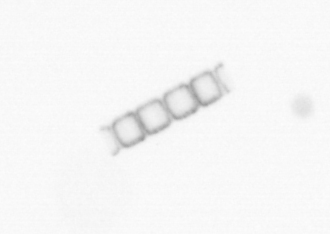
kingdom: Chromista
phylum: Ochrophyta
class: Bacillariophyceae
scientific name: Bacillariophyceae
